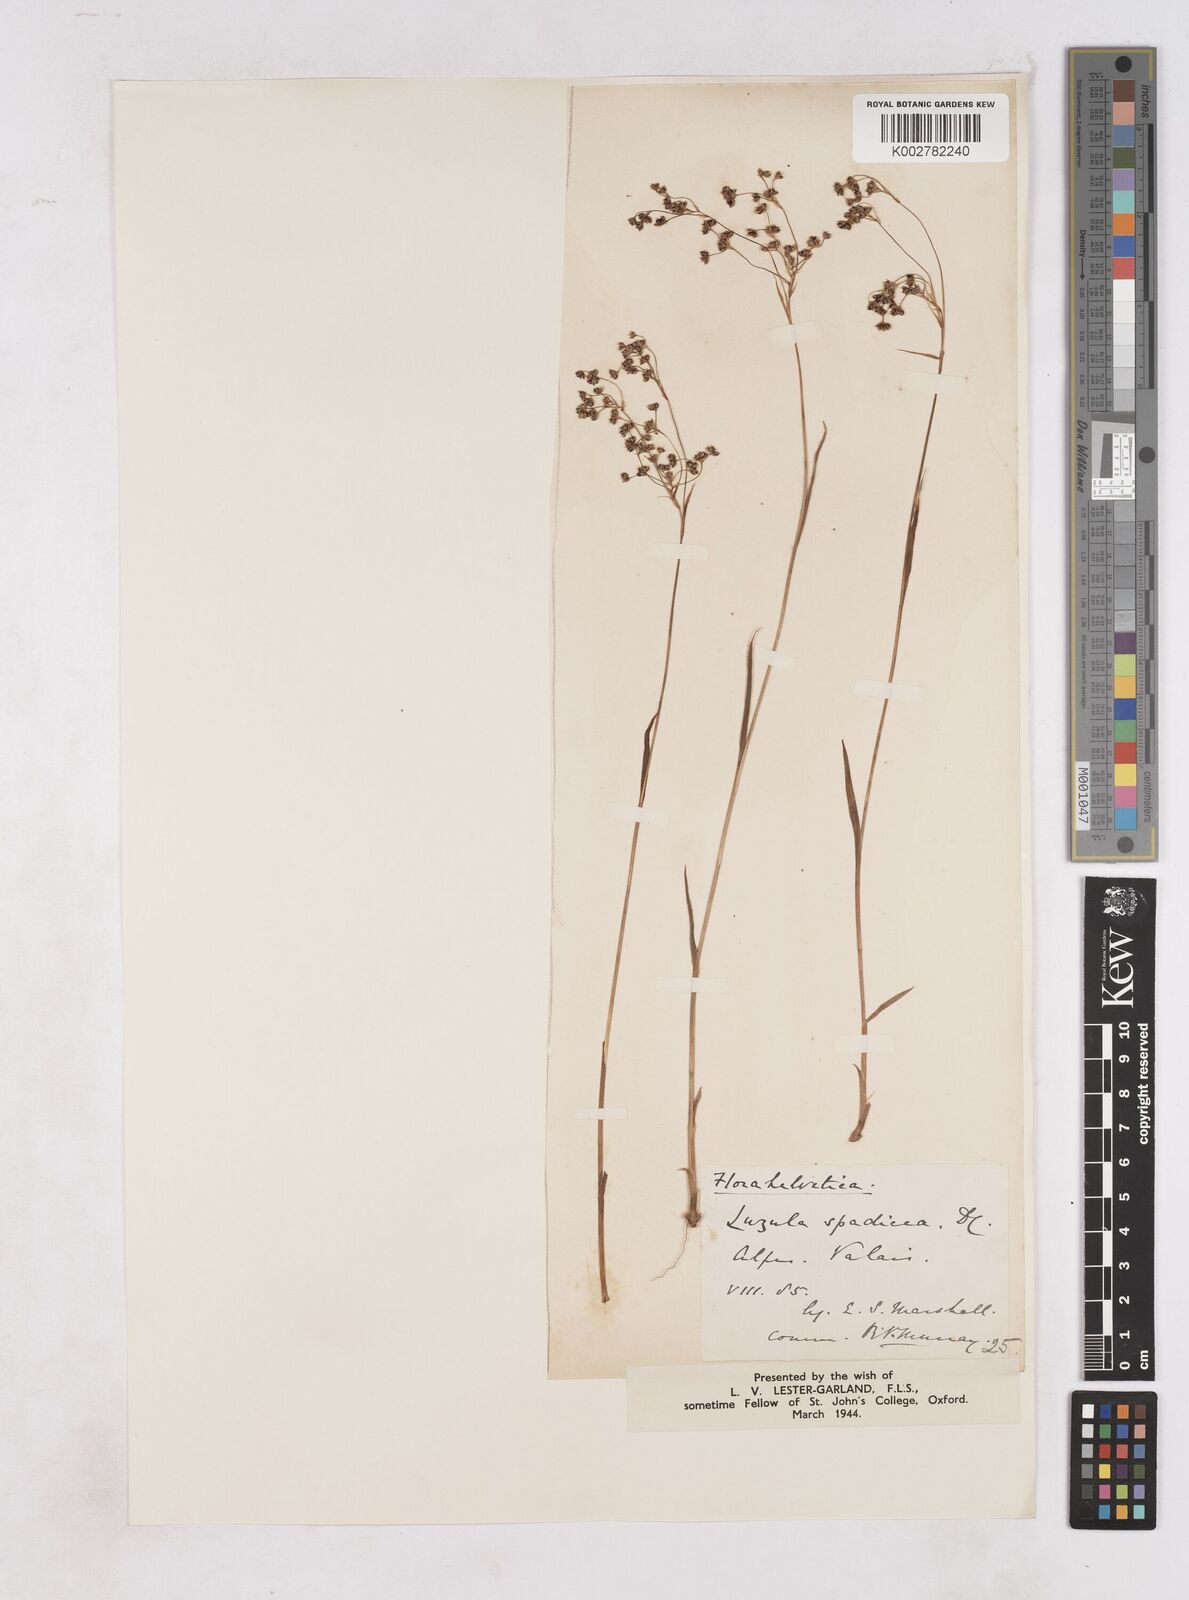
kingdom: Plantae
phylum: Tracheophyta
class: Liliopsida
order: Poales
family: Juncaceae
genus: Luzula
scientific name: Luzula alpinopilosa
